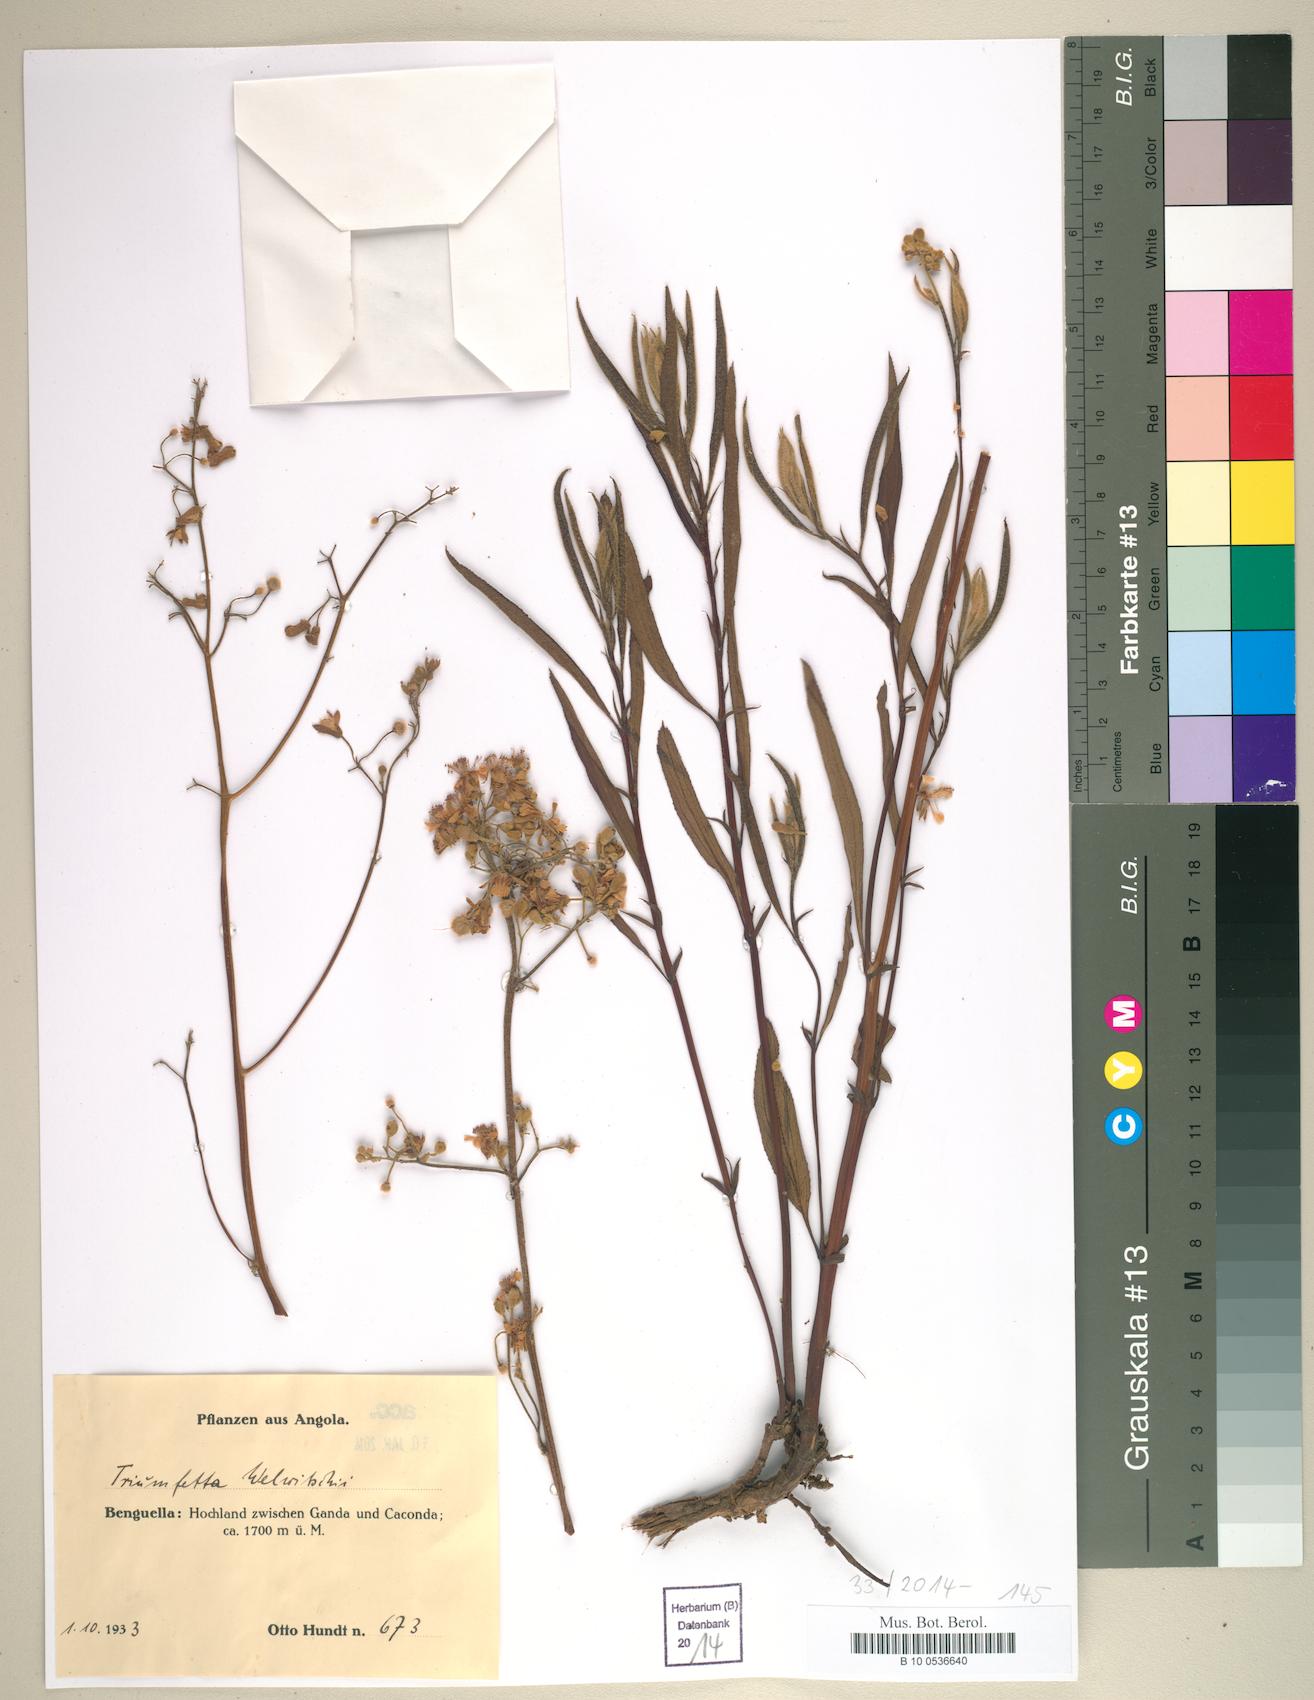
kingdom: Plantae
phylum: Tracheophyta
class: Magnoliopsida
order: Malvales
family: Malvaceae
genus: Triumfetta
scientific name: Triumfetta welwitschii
